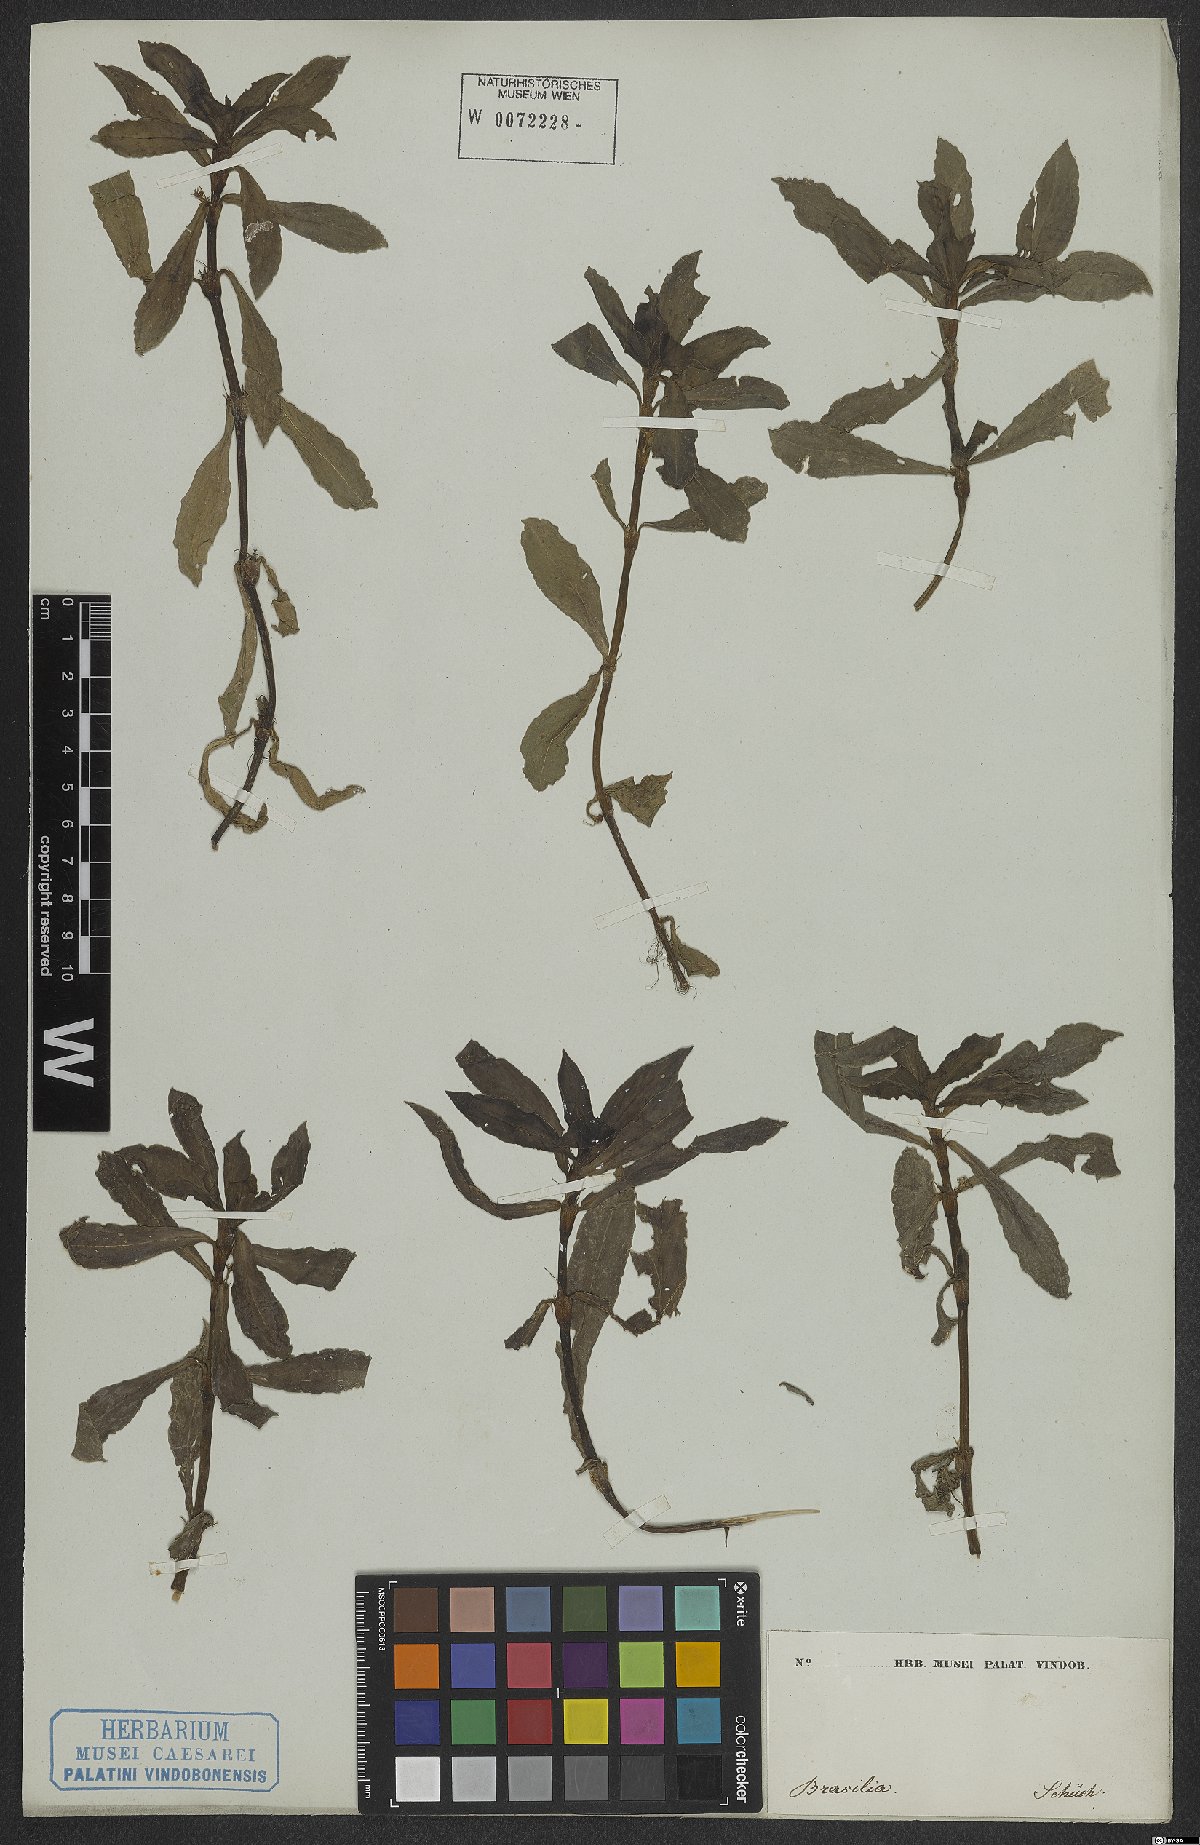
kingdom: Plantae
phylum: Tracheophyta
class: Magnoliopsida
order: Gentianales
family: Rubiaceae
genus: Diodia
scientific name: Diodia saponariifolia
